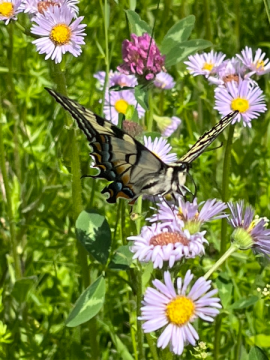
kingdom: Animalia
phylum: Arthropoda
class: Insecta
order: Lepidoptera
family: Papilionidae
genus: Pterourus
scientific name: Pterourus canadensis
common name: Canadian Tiger Swallowtail
